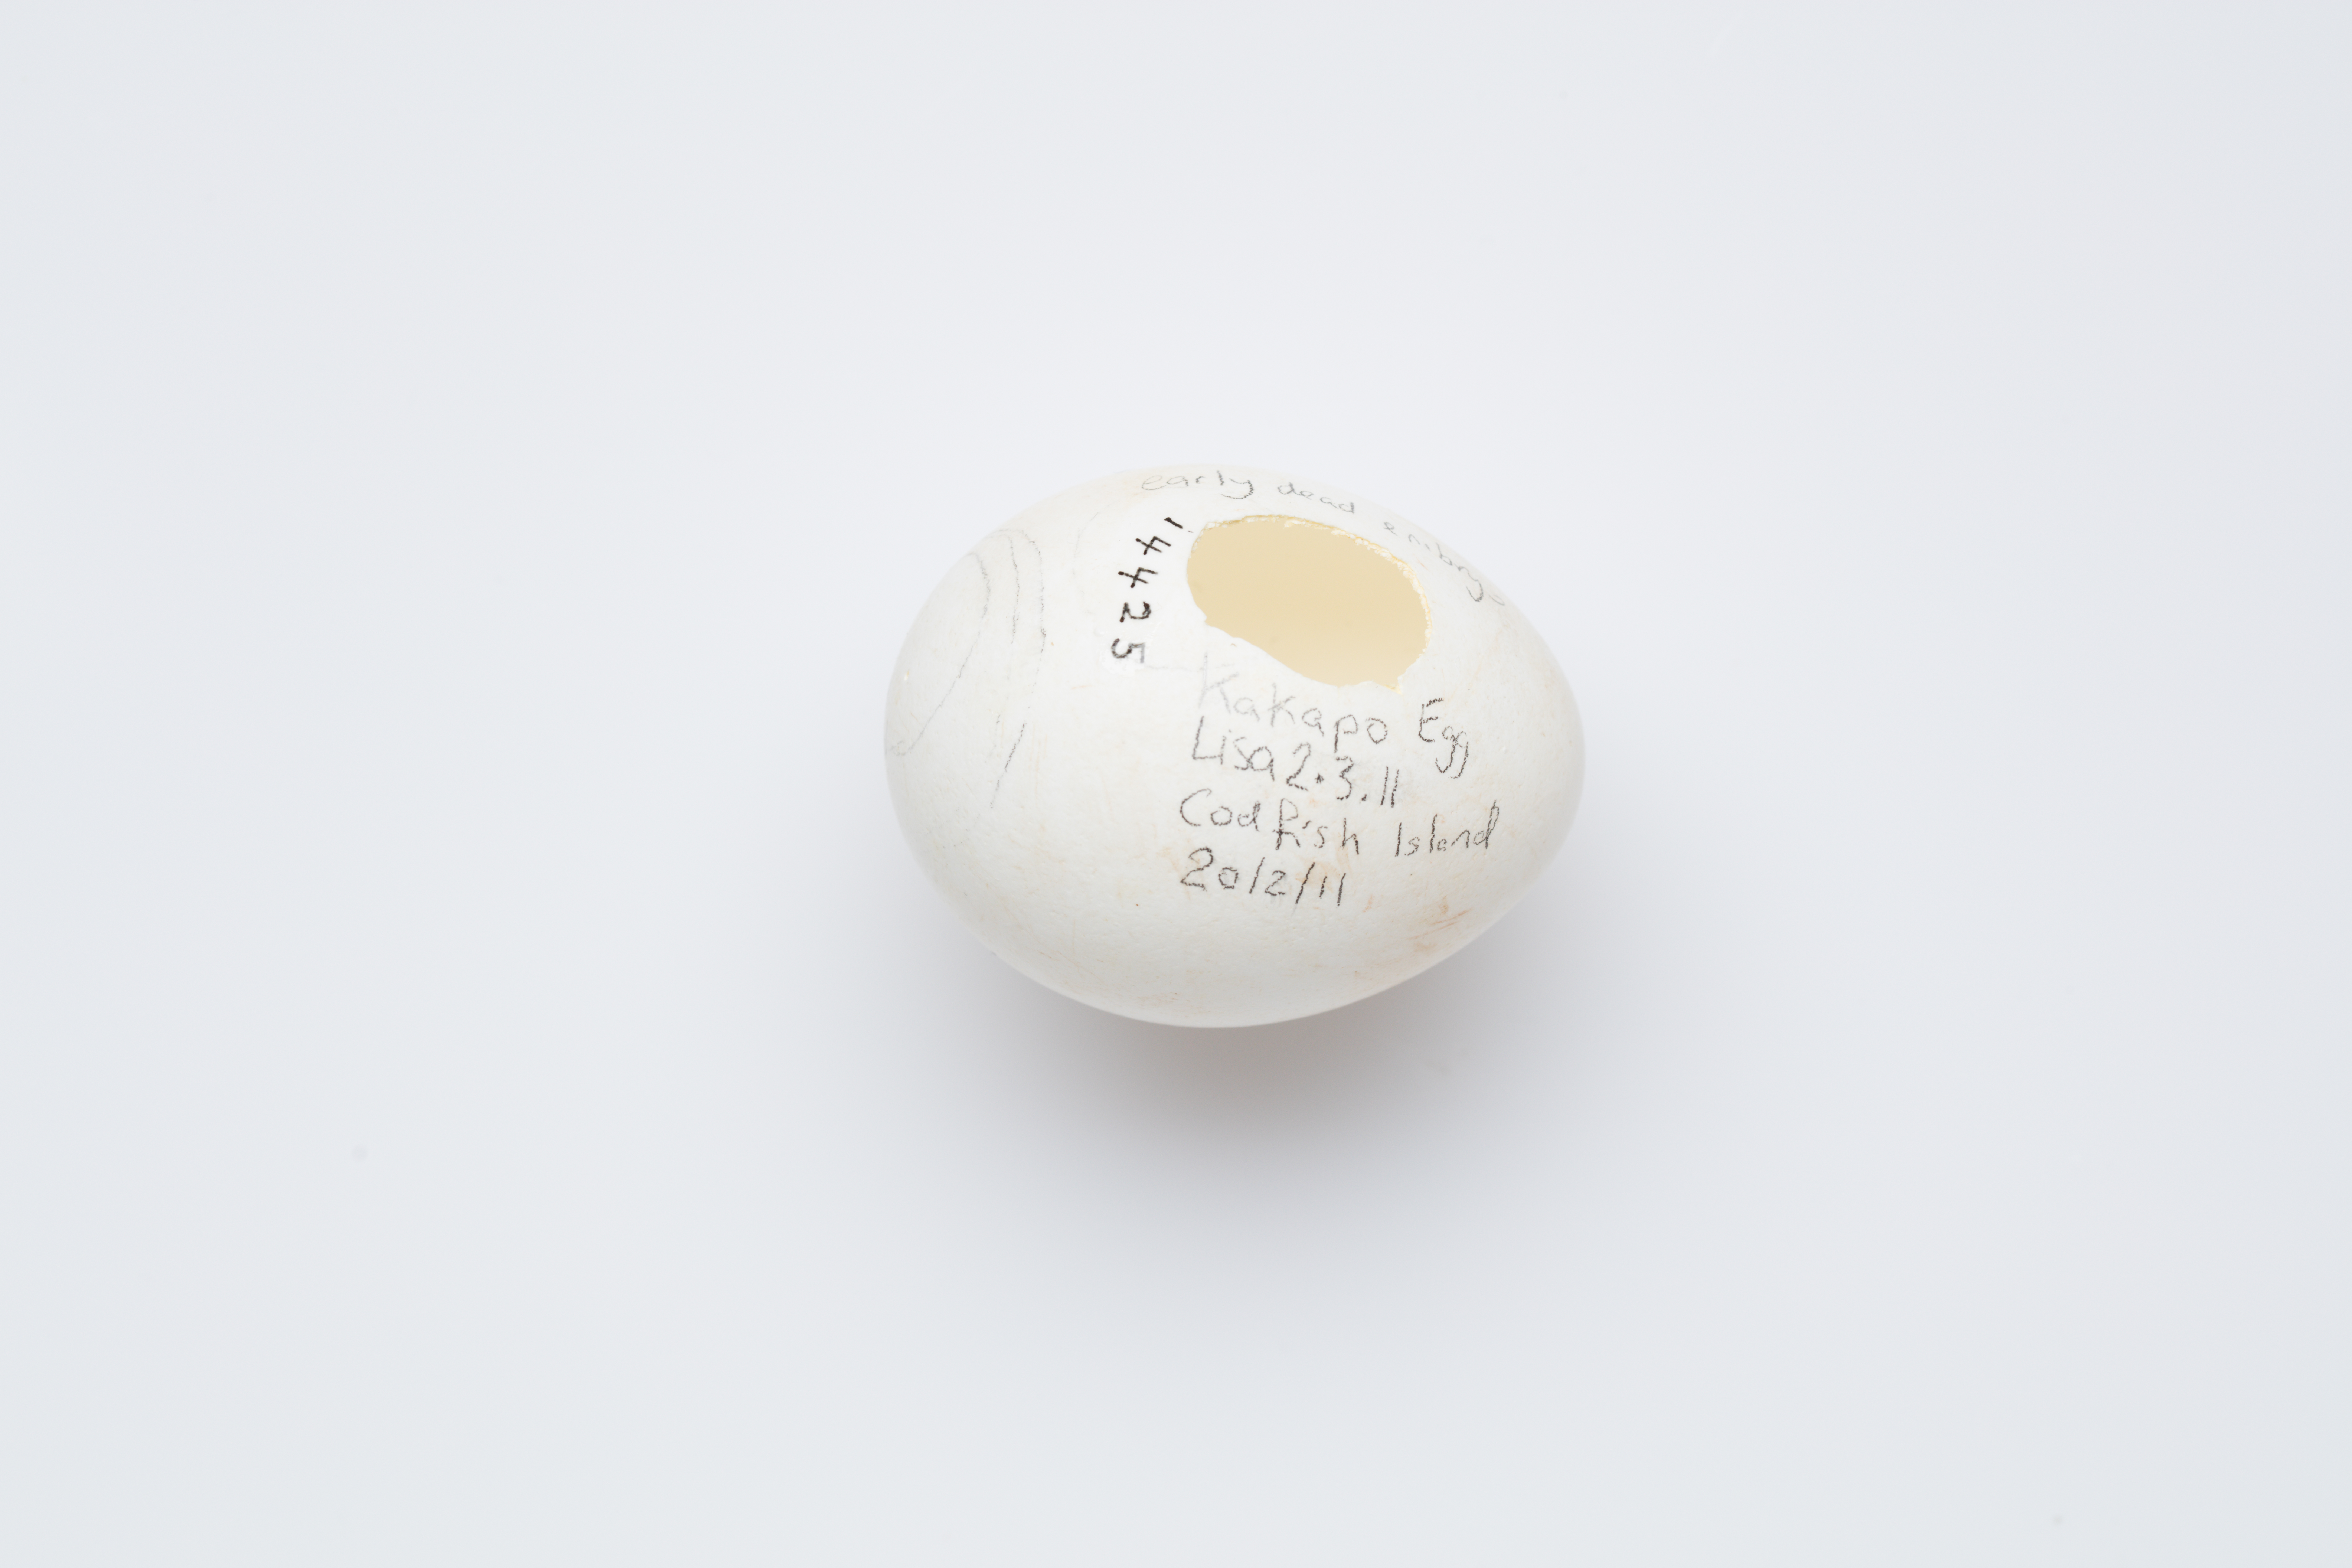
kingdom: Animalia
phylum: Chordata
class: Aves
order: Psittaciformes
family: Psittacidae
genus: Strigops
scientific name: Strigops habroptila
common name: Kakapo
